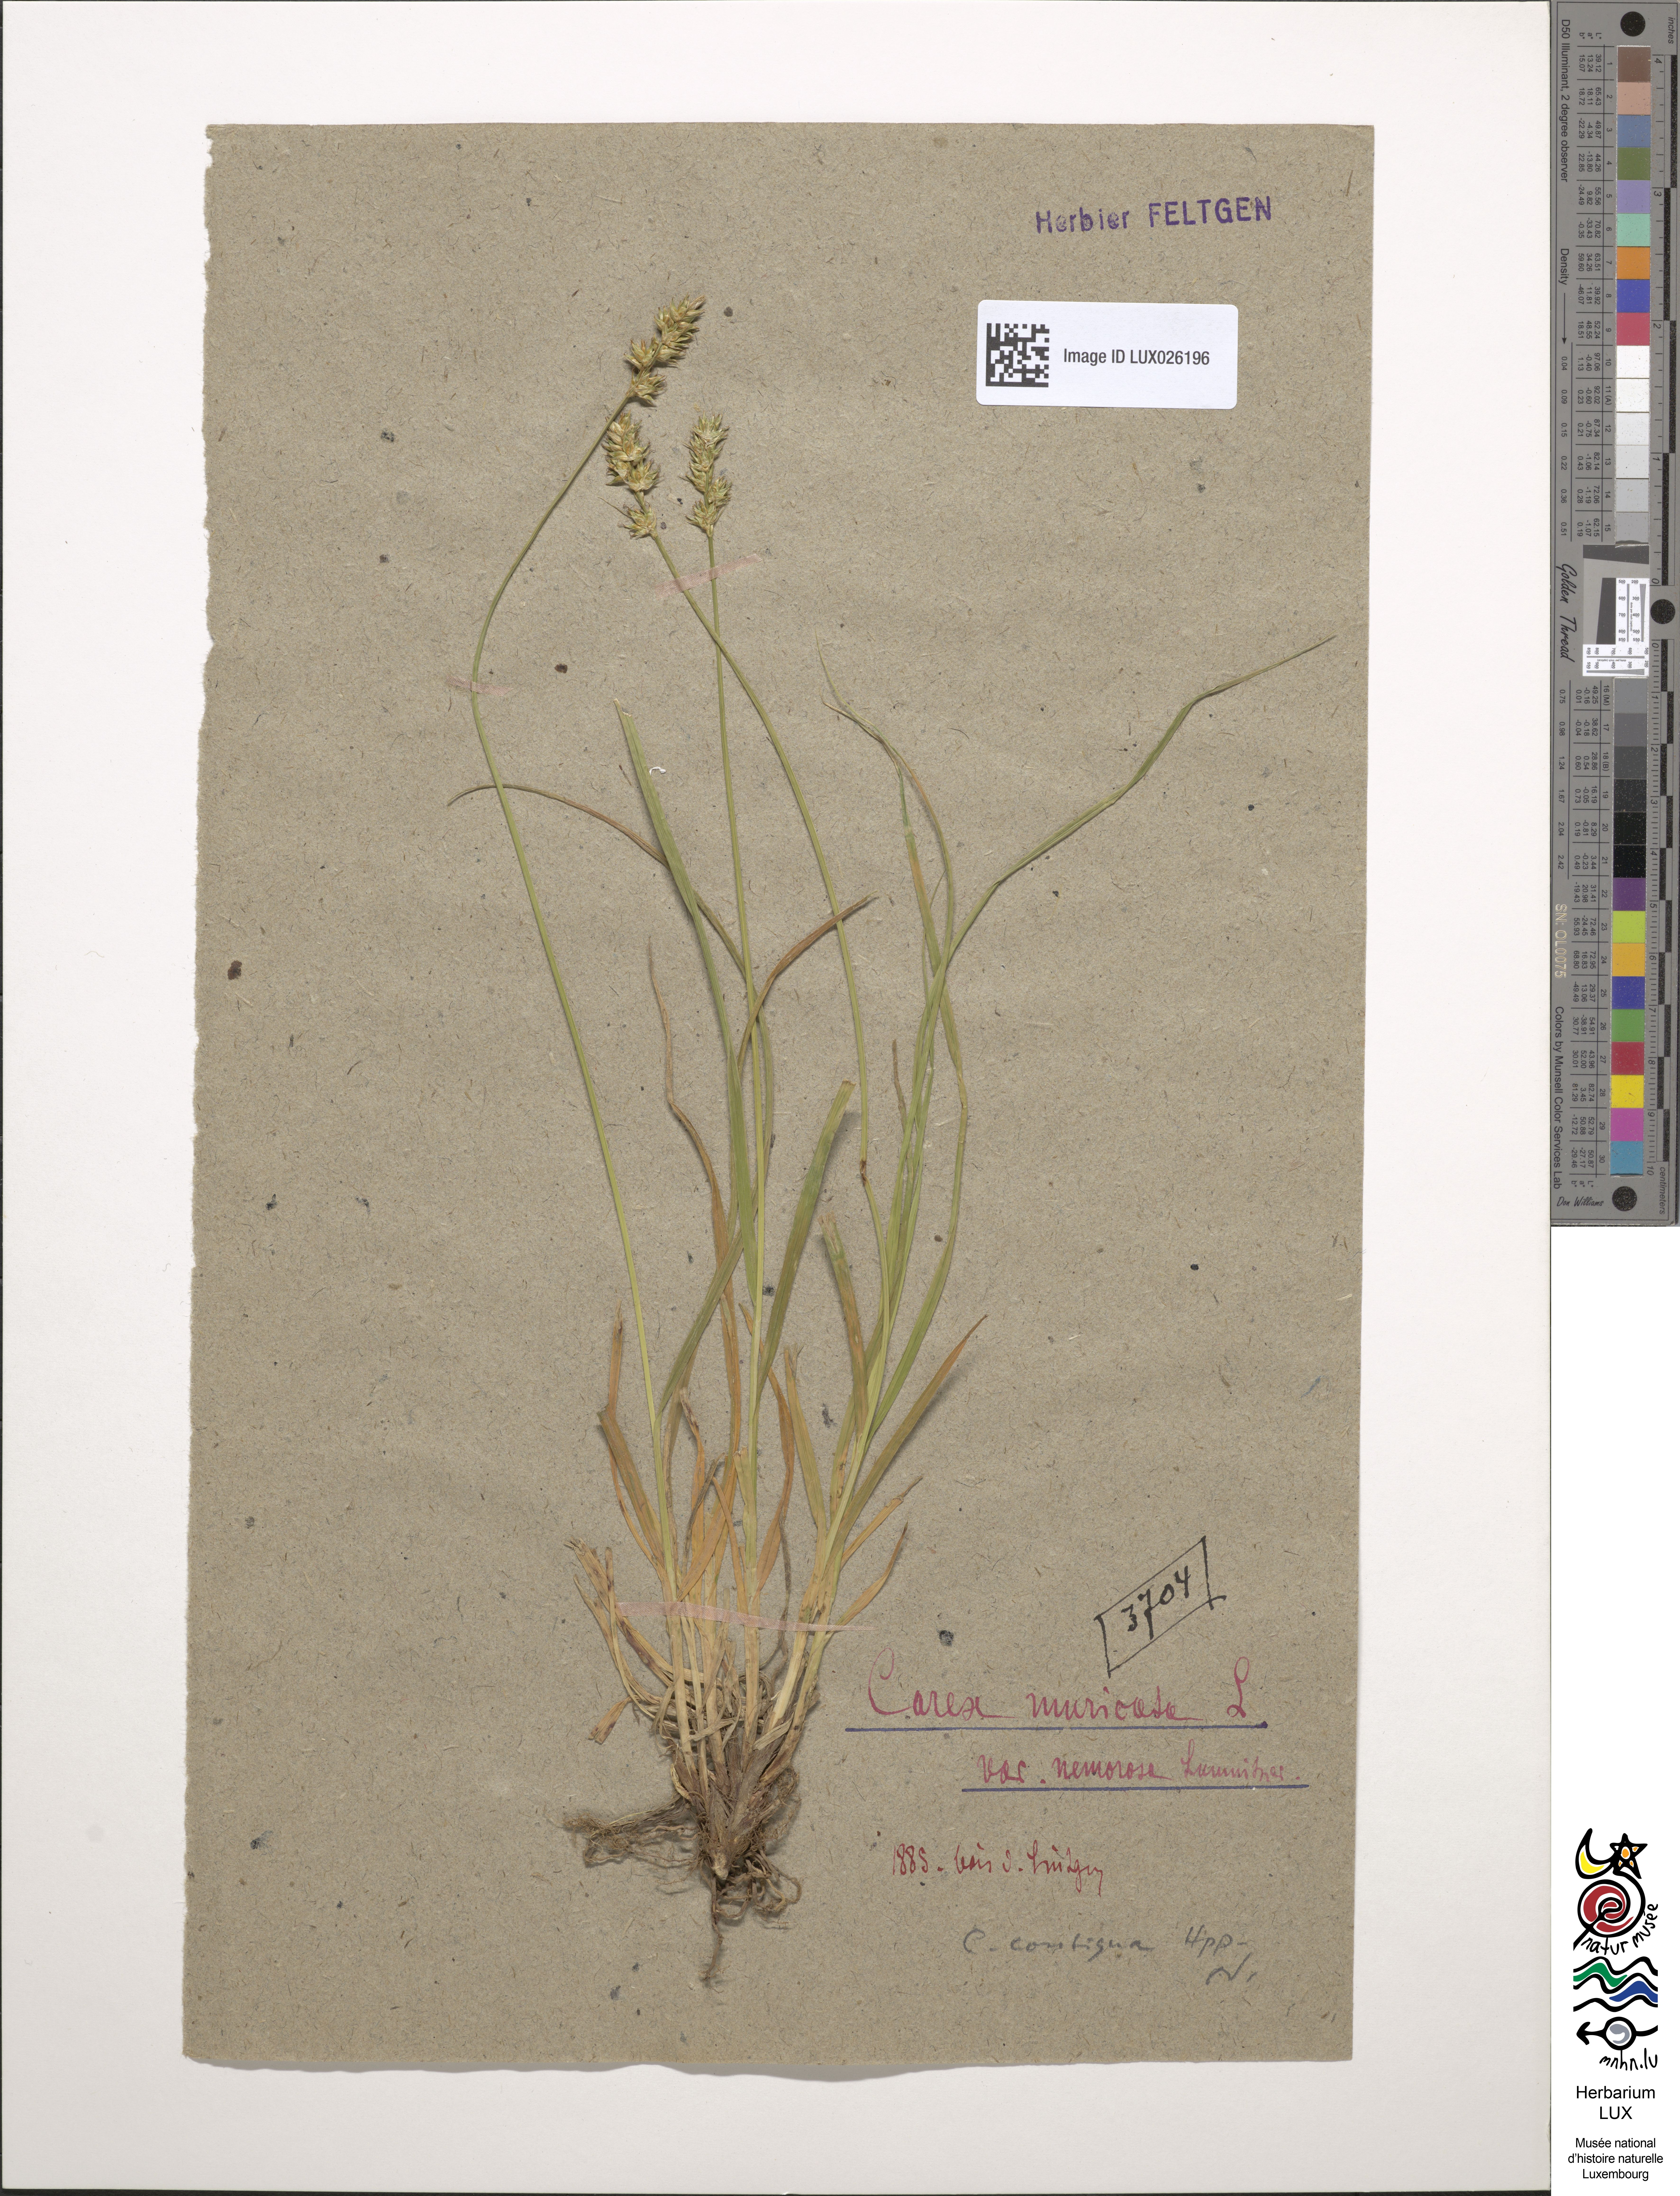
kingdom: Plantae
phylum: Tracheophyta
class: Liliopsida
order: Poales
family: Cyperaceae
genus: Carex
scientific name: Carex spicata
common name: Spiked sedge
